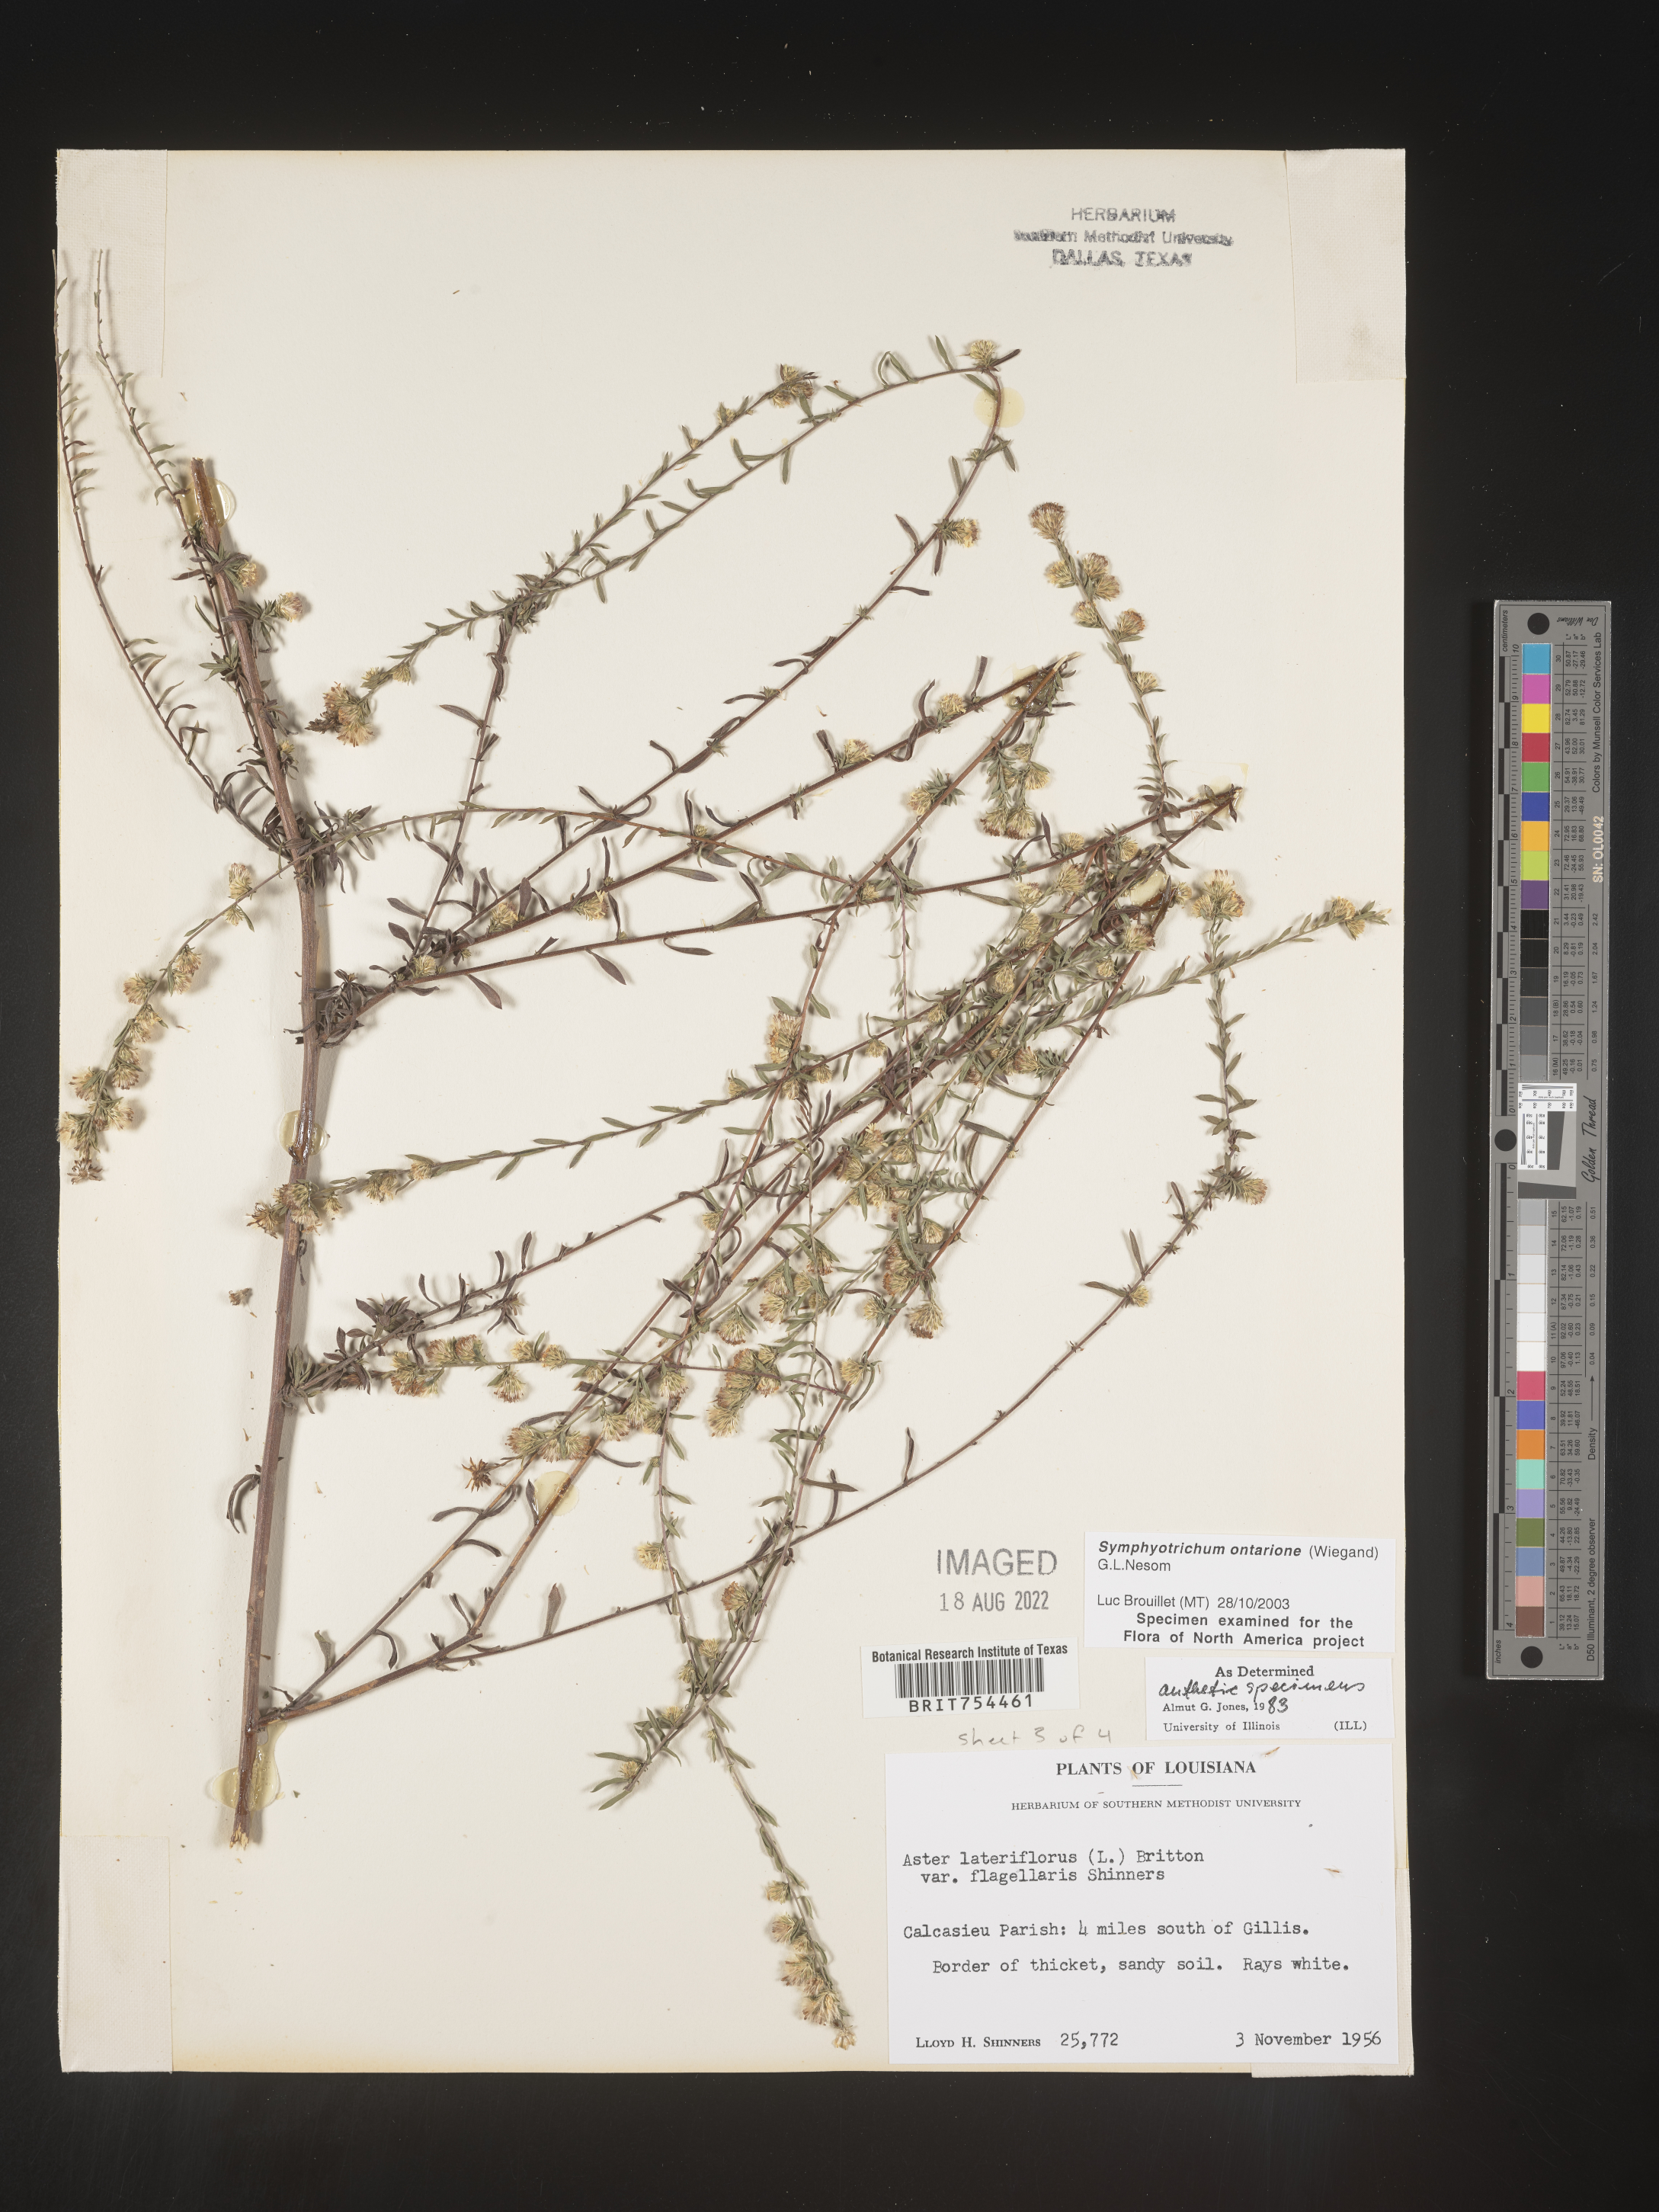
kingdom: Plantae
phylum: Tracheophyta
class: Magnoliopsida
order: Asterales
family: Asteraceae
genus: Symphyotrichum
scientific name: Symphyotrichum ontarionis
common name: Bottomland aster
